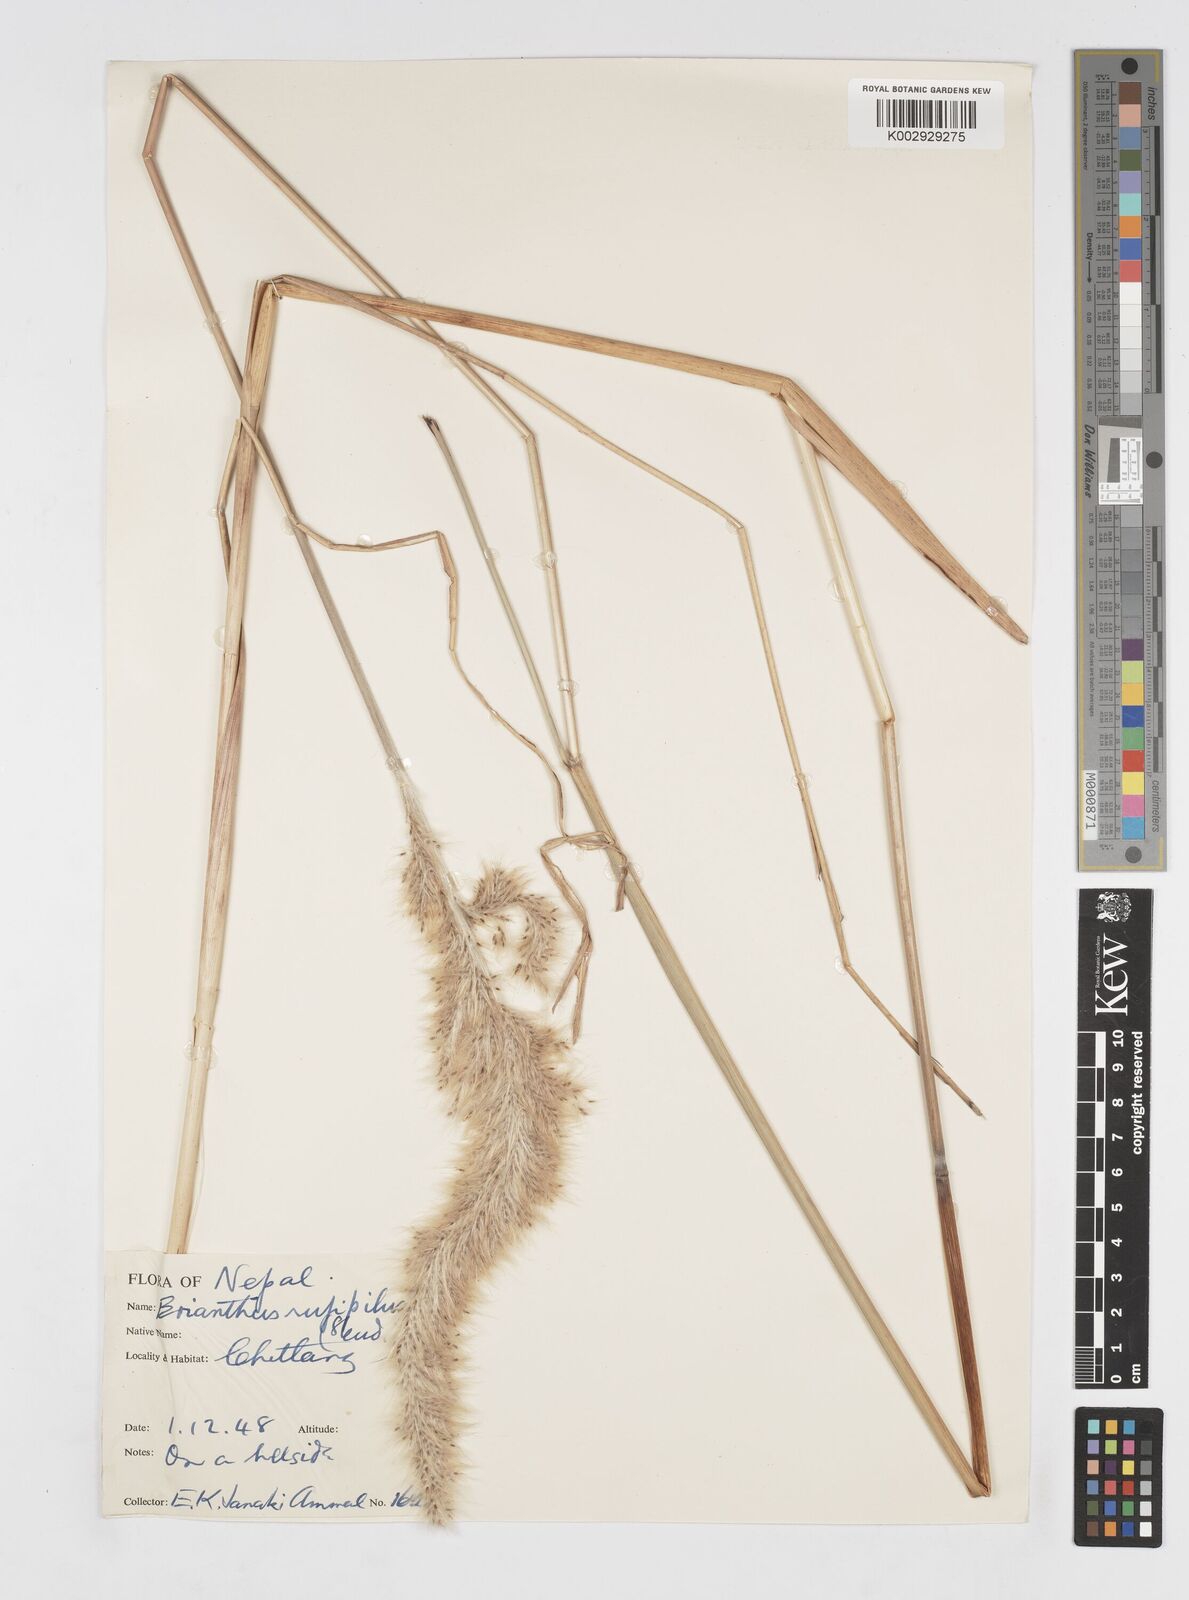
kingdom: Plantae
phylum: Tracheophyta
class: Liliopsida
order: Poales
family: Poaceae
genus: Tripidium
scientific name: Tripidium rufipilum
